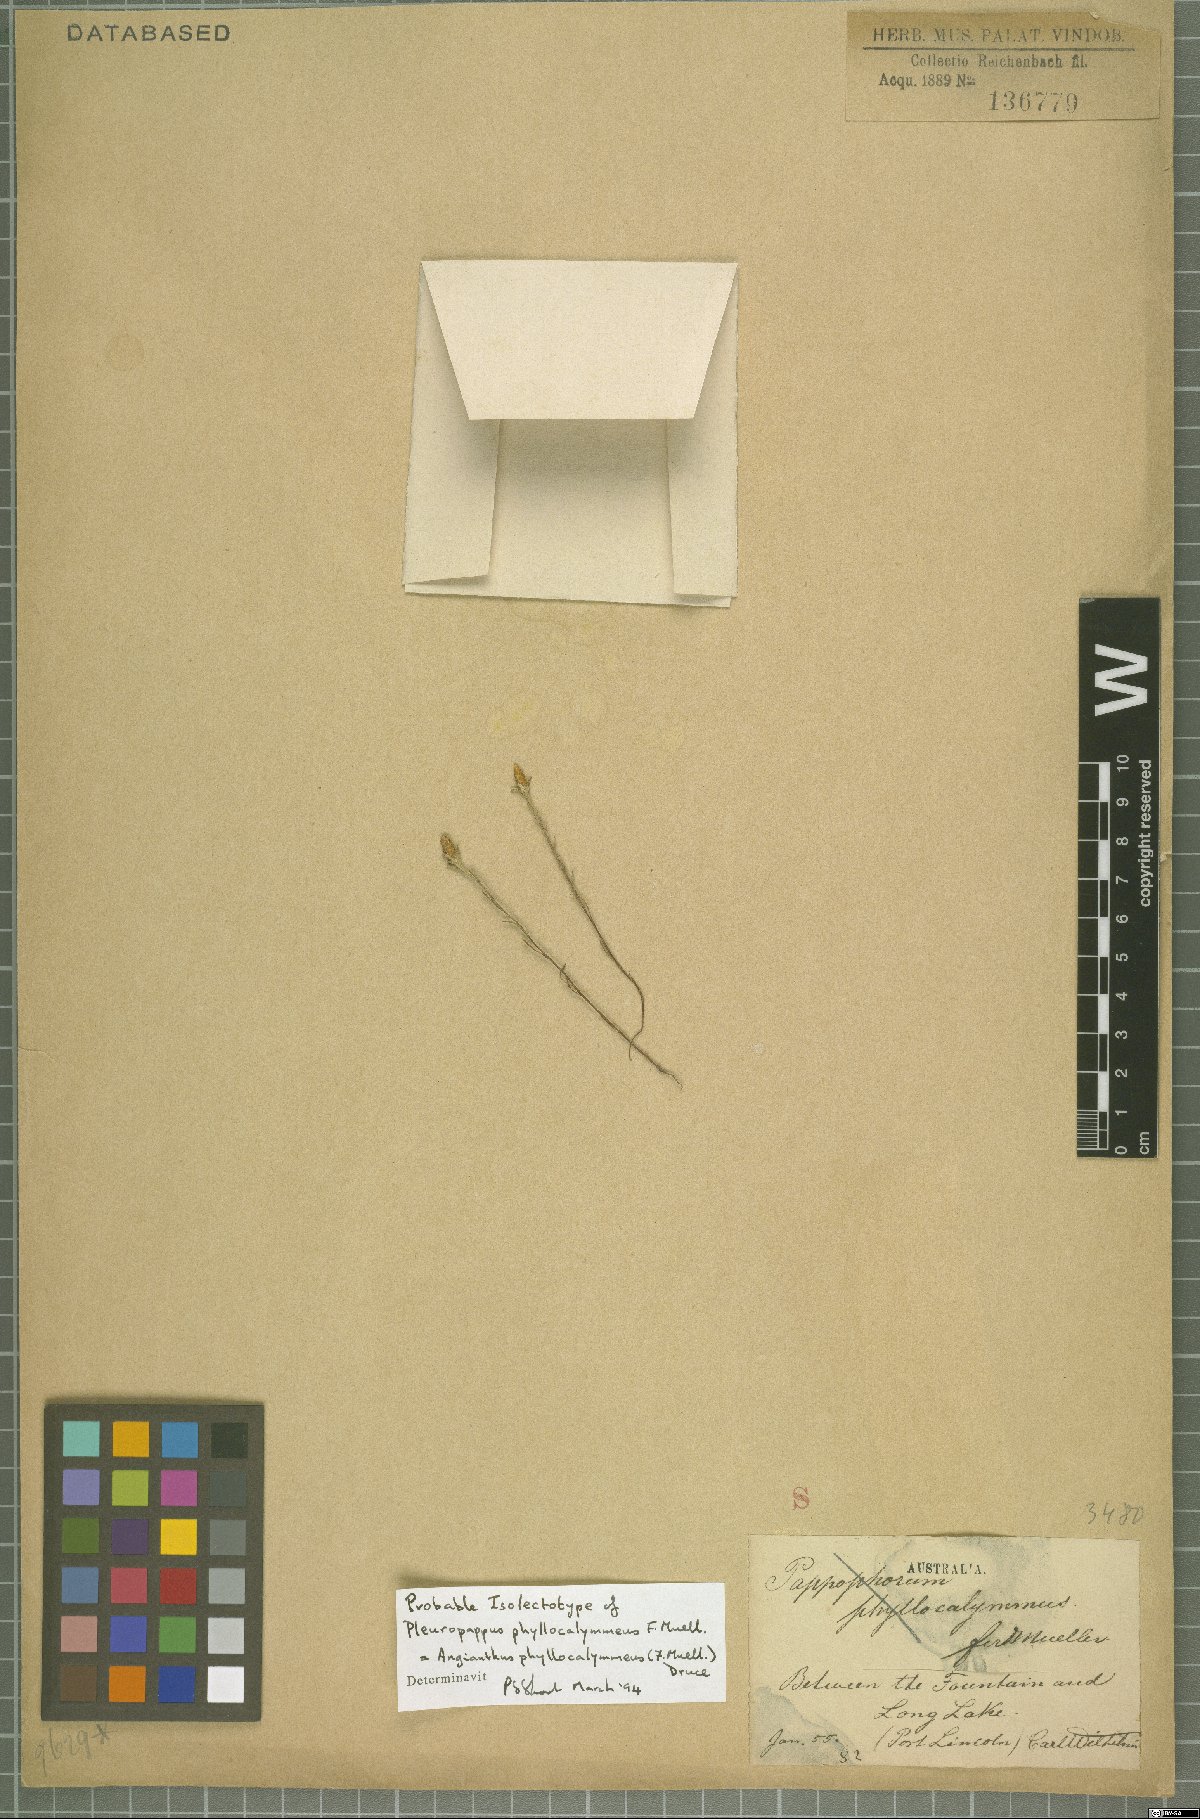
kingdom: Plantae
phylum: Tracheophyta
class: Magnoliopsida
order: Asterales
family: Asteraceae
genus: Angianthus
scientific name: Angianthus phyllocalymmeus
